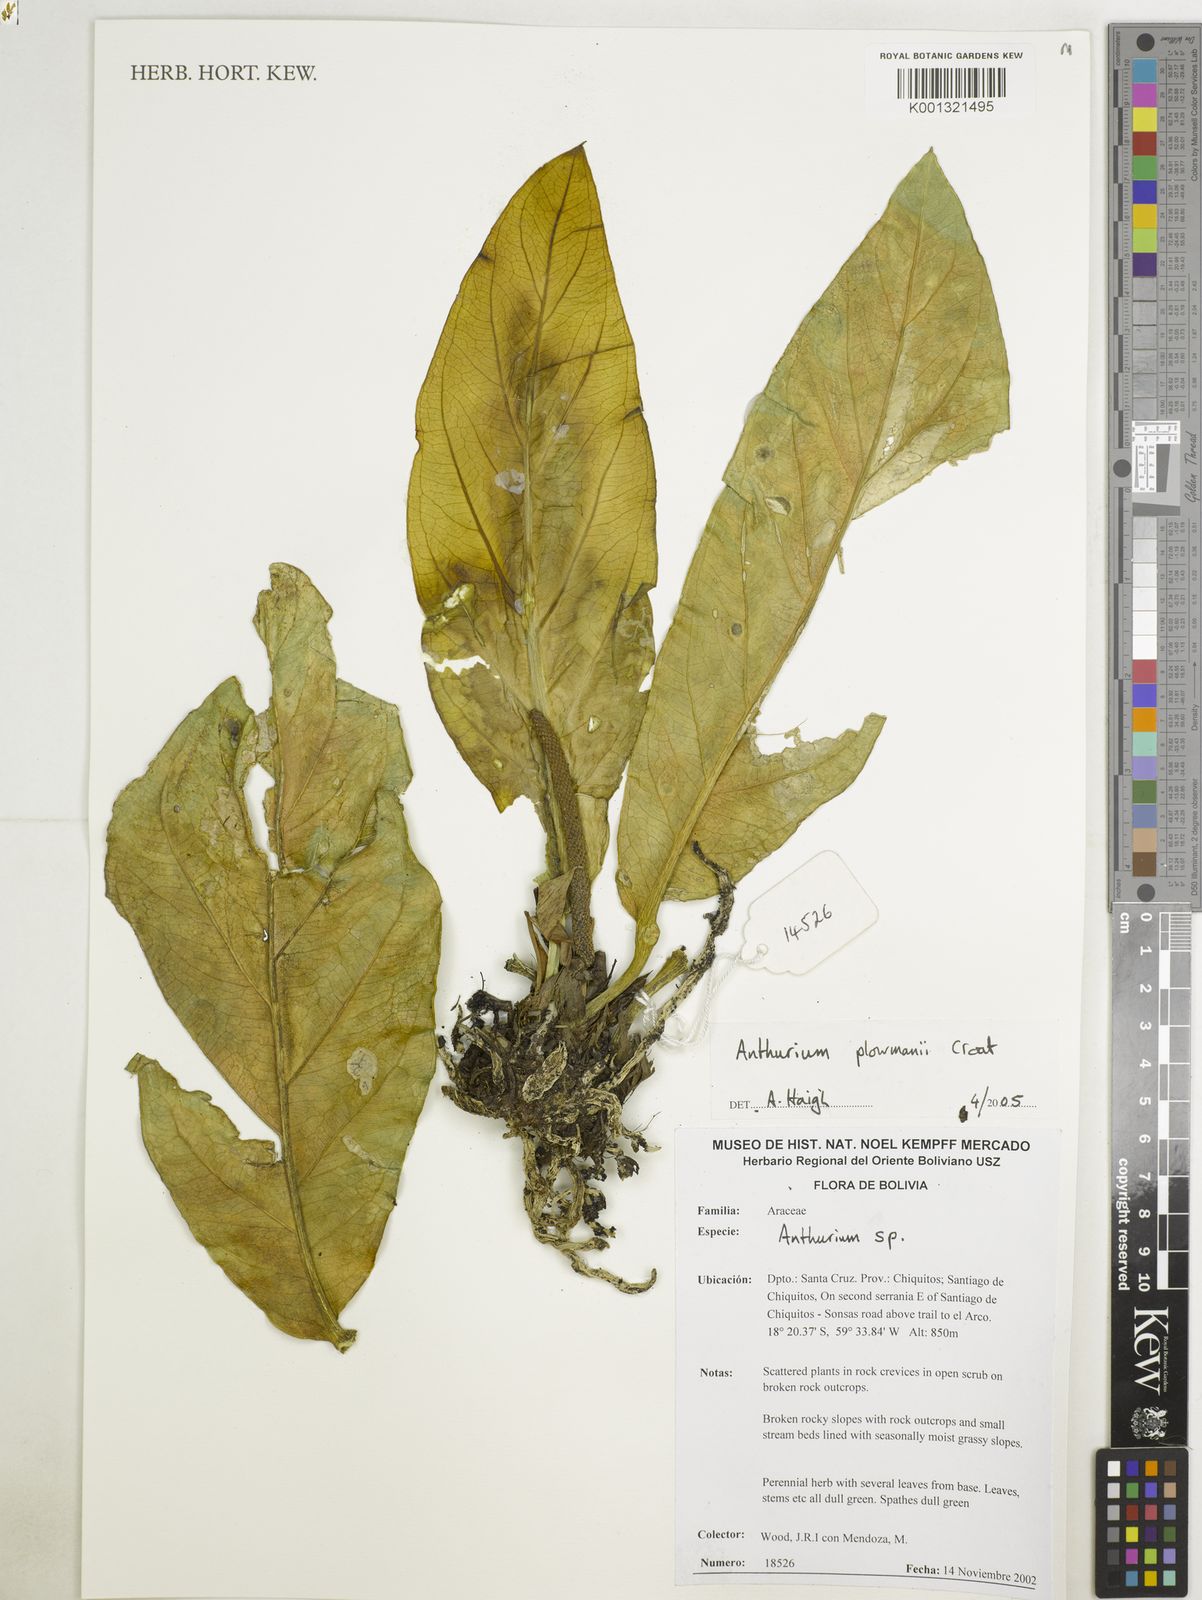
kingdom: Plantae
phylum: Tracheophyta
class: Liliopsida
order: Alismatales
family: Araceae
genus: Anthurium
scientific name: Anthurium plowmanii
